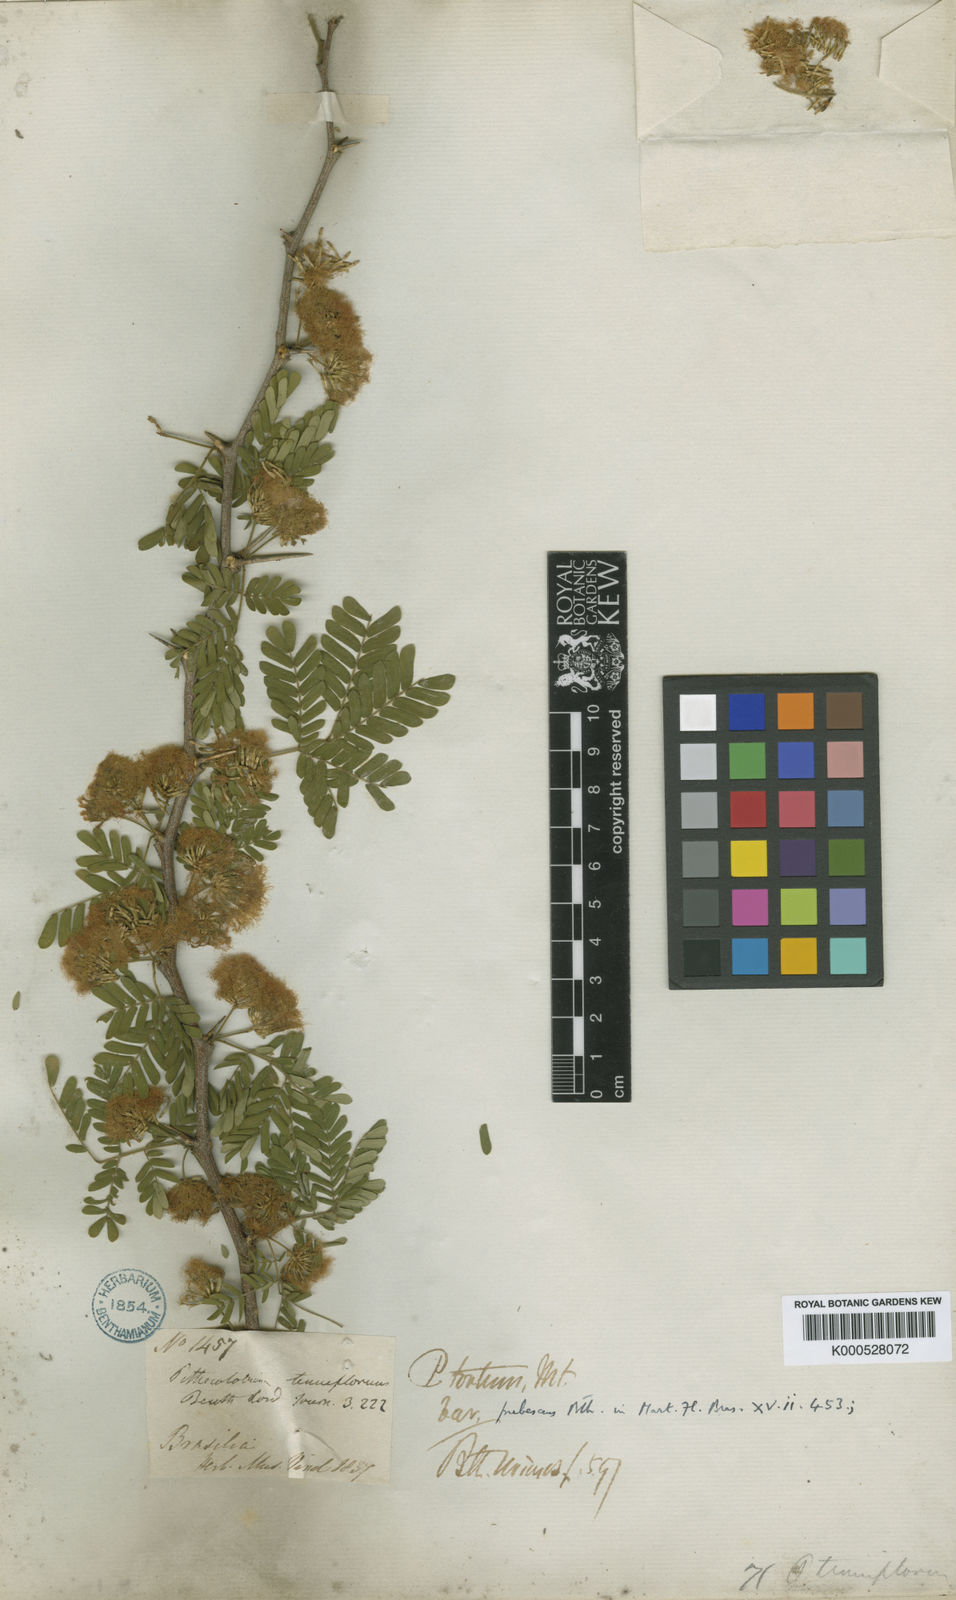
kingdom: Plantae
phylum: Tracheophyta
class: Magnoliopsida
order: Fabales
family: Fabaceae
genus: Chloroleucon
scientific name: Chloroleucon
